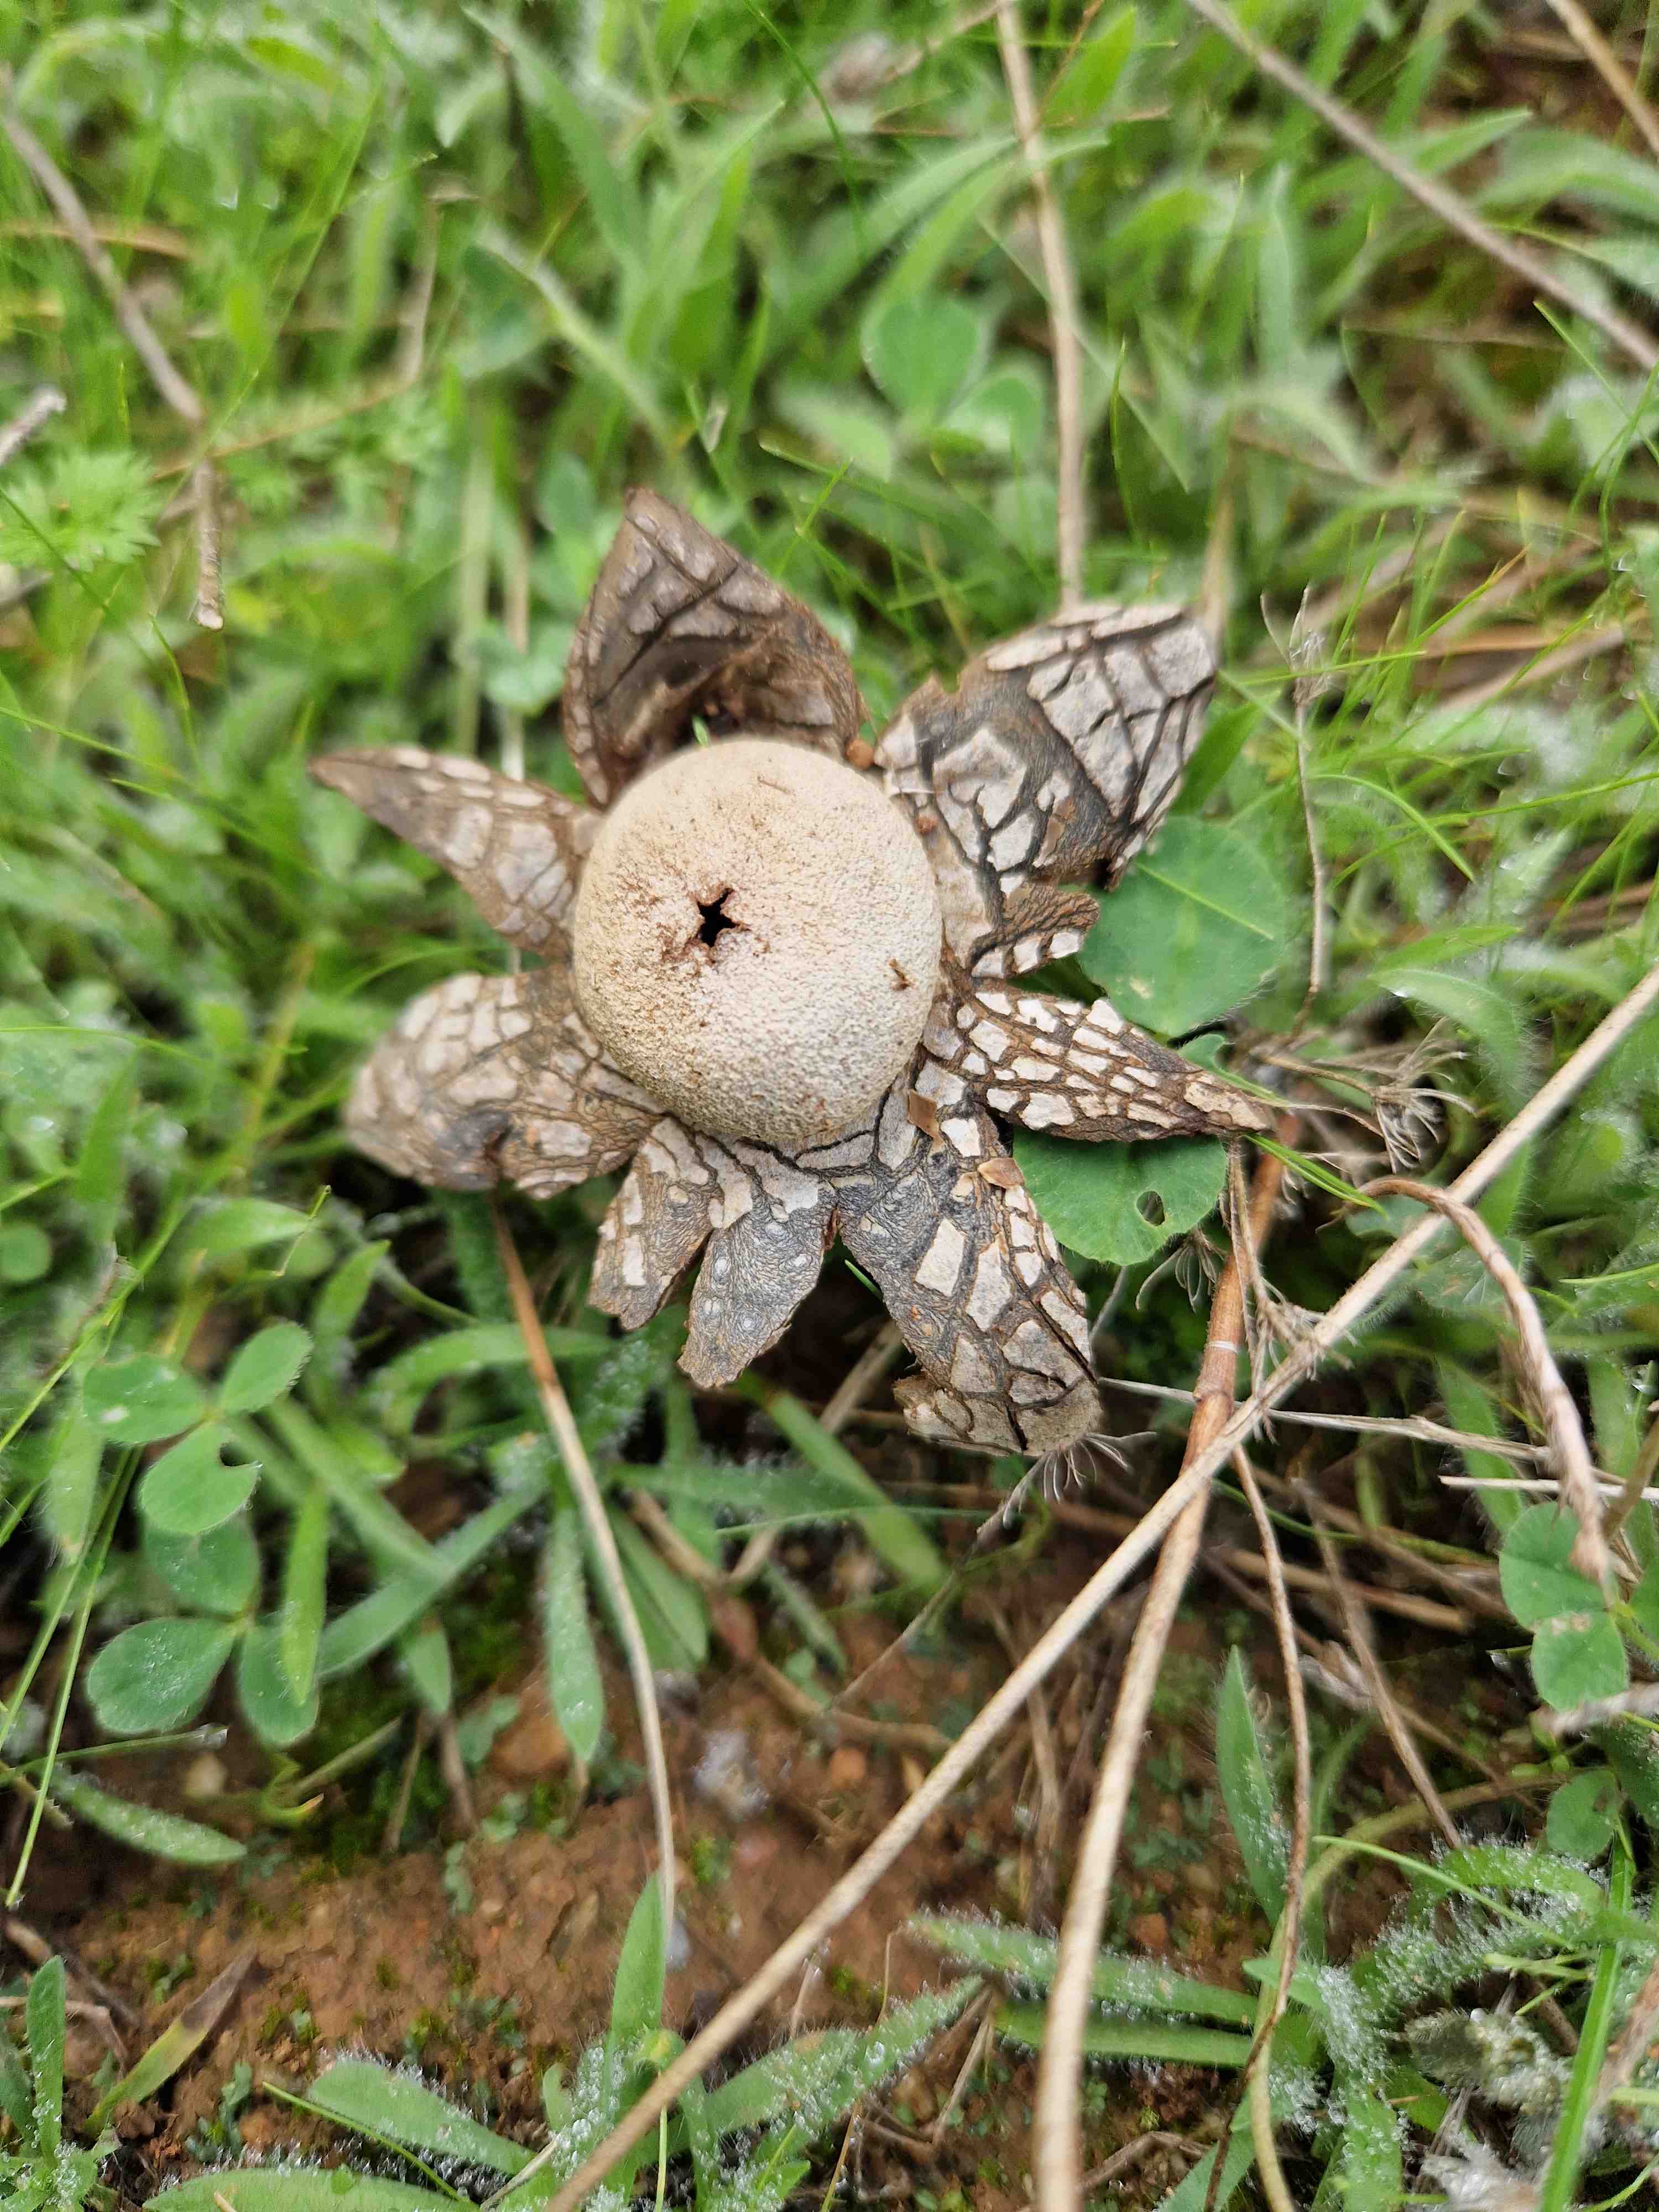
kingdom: Fungi
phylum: Basidiomycota
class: Agaricomycetes
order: Boletales
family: Diplocystidiaceae
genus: Astraeus
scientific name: Astraeus
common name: hygrometerstjerne
